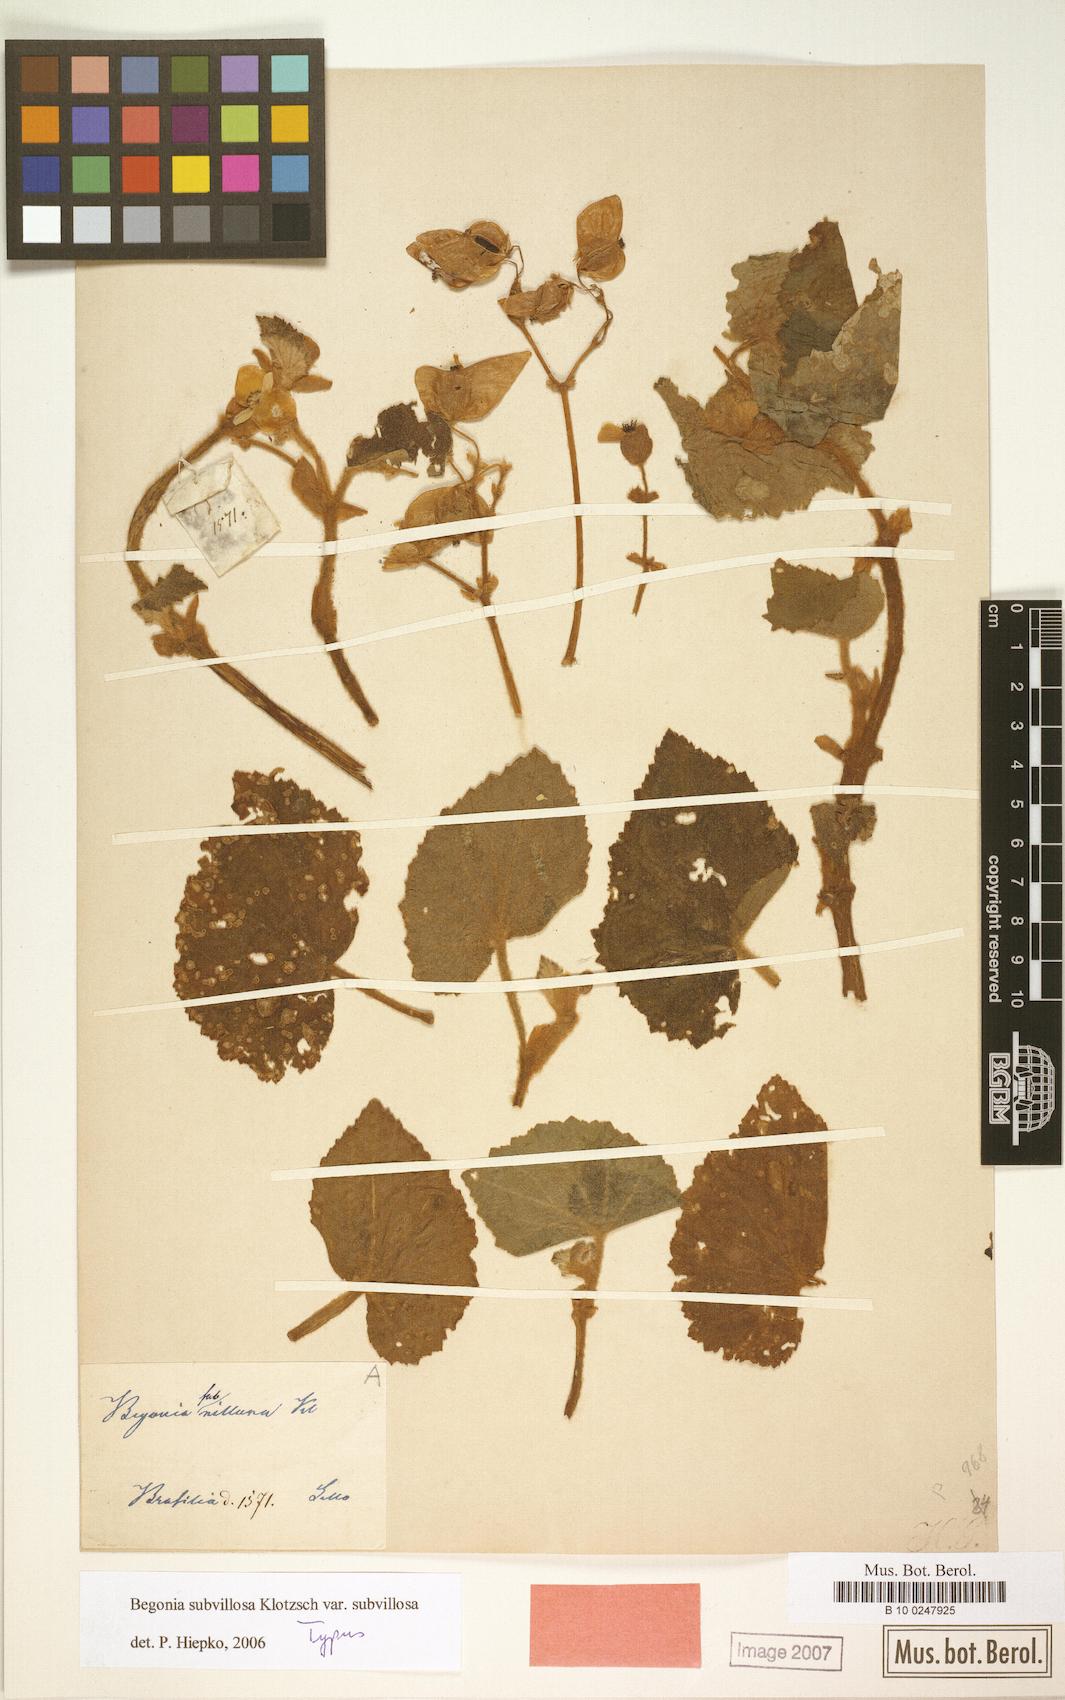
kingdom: Plantae
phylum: Tracheophyta
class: Magnoliopsida
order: Cucurbitales
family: Begoniaceae
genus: Begonia
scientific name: Begonia subvillosa
